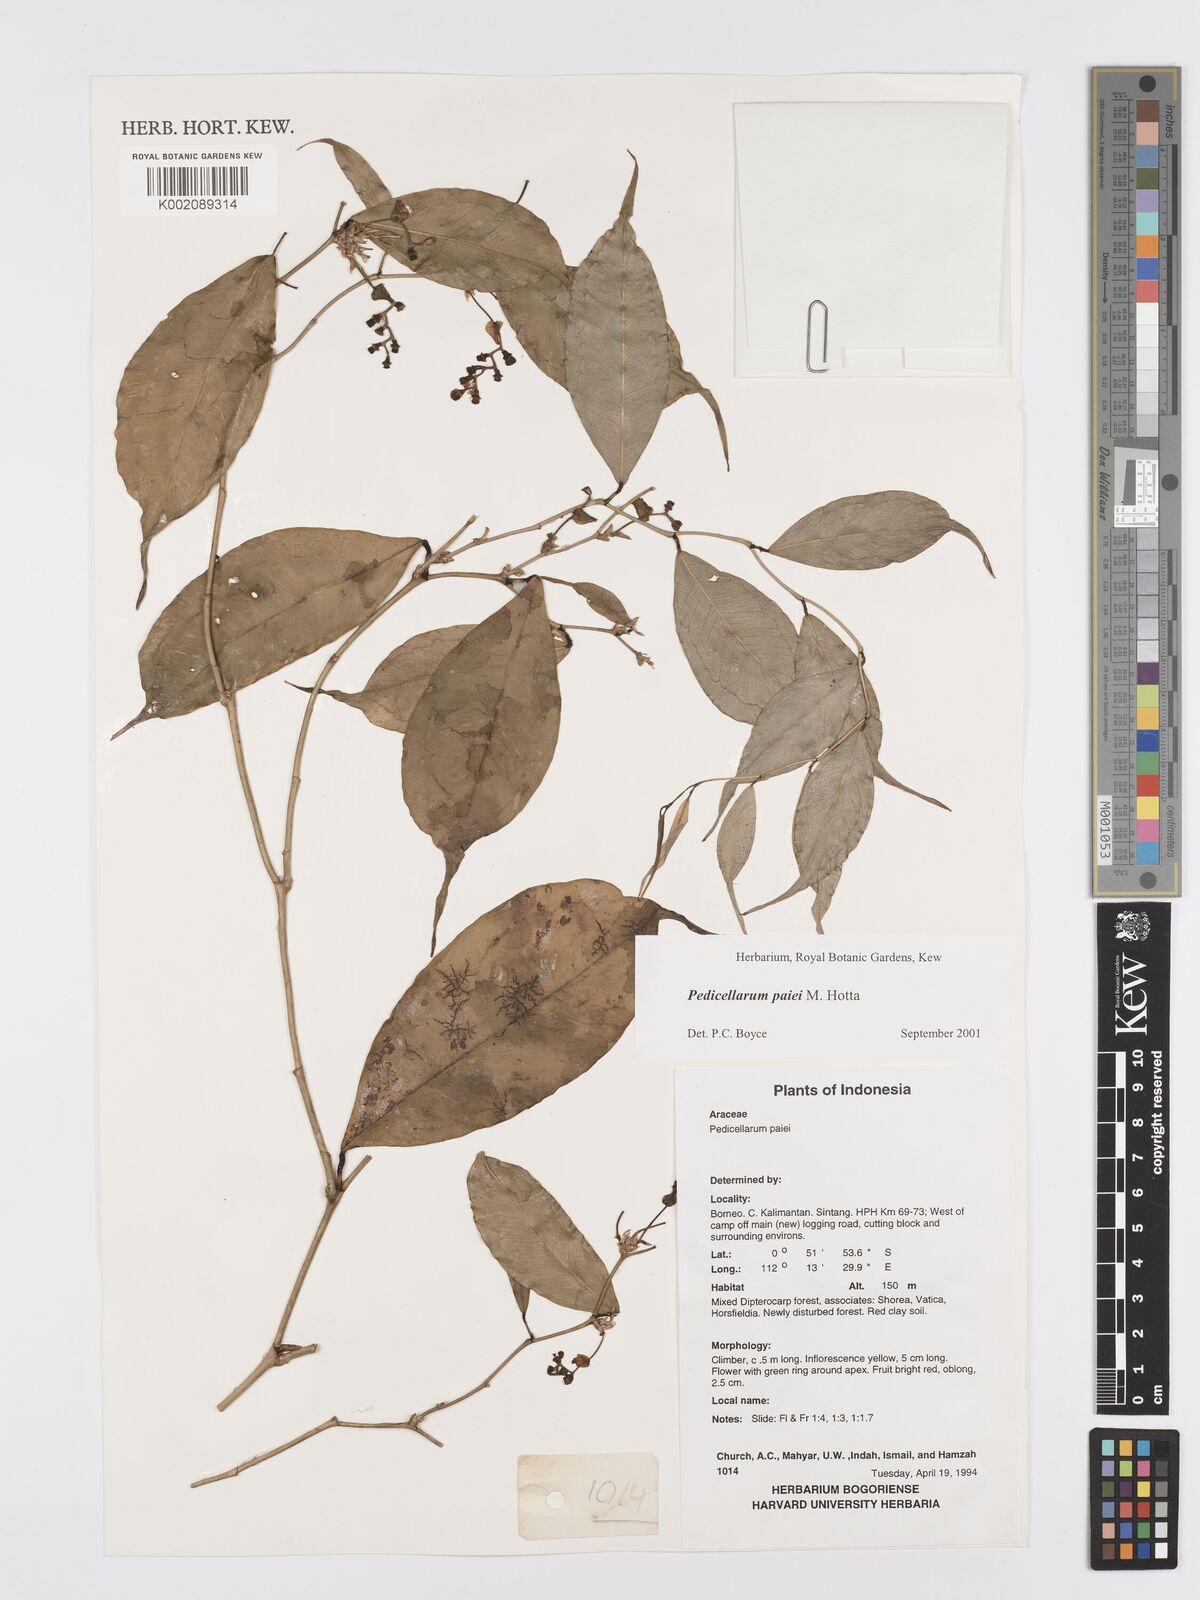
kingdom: Plantae
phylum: Tracheophyta
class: Liliopsida
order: Alismatales
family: Araceae
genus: Pothos
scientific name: Pothos paiei
